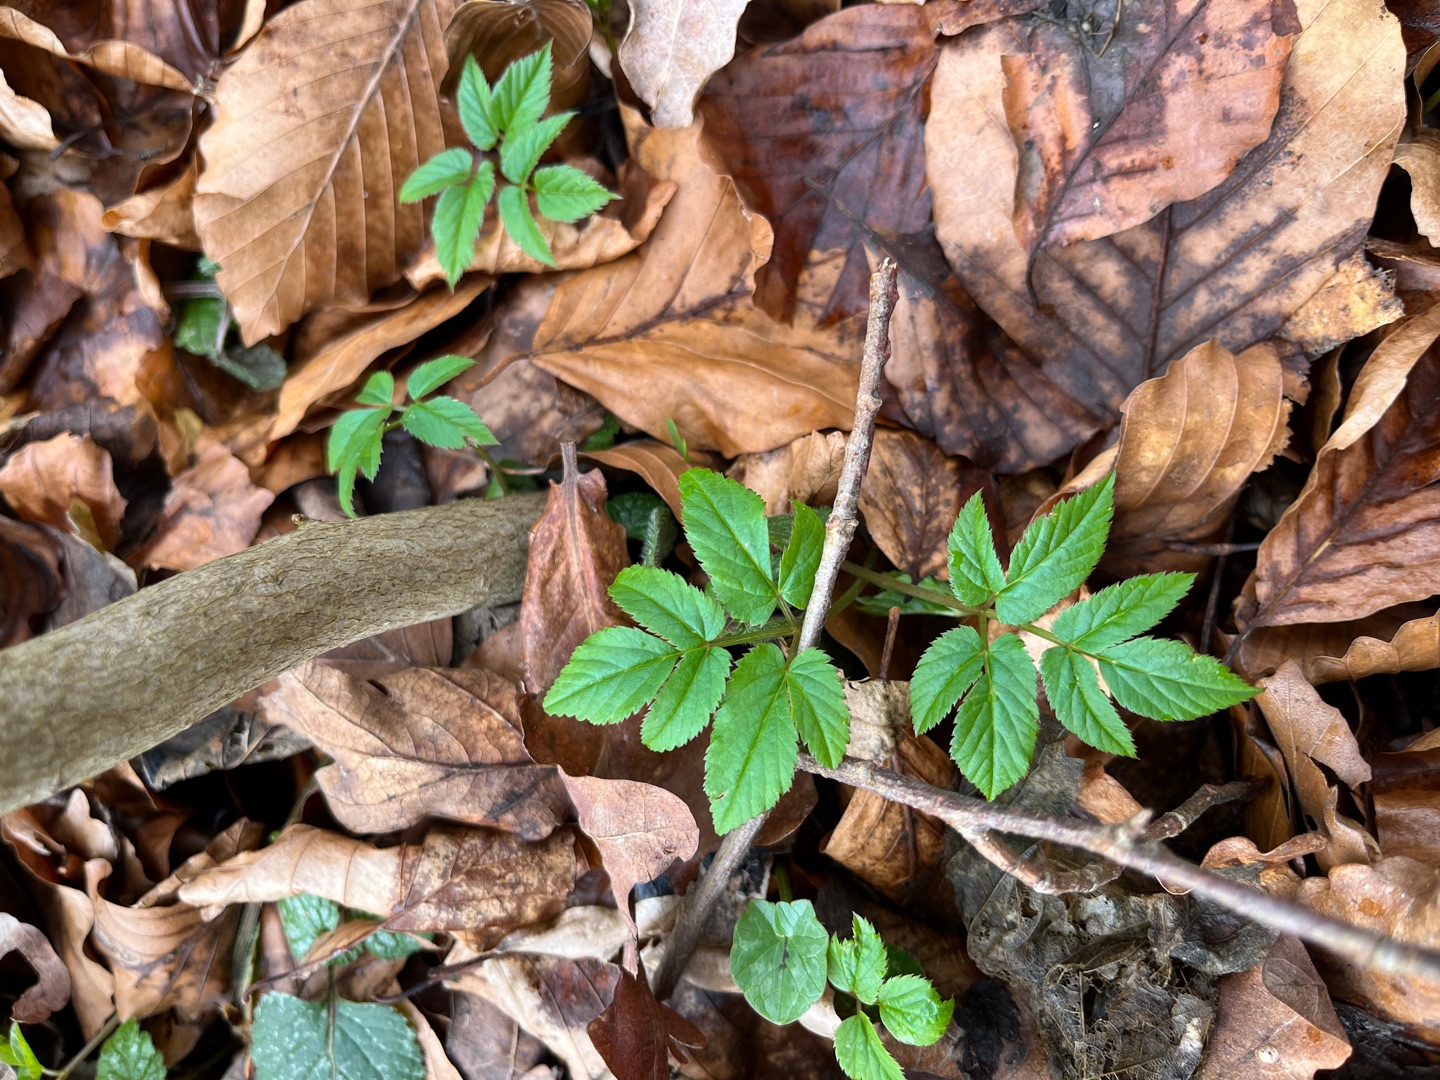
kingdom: Plantae
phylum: Tracheophyta
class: Magnoliopsida
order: Apiales
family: Apiaceae
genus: Aegopodium
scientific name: Aegopodium podagraria
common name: Skvalderkål
